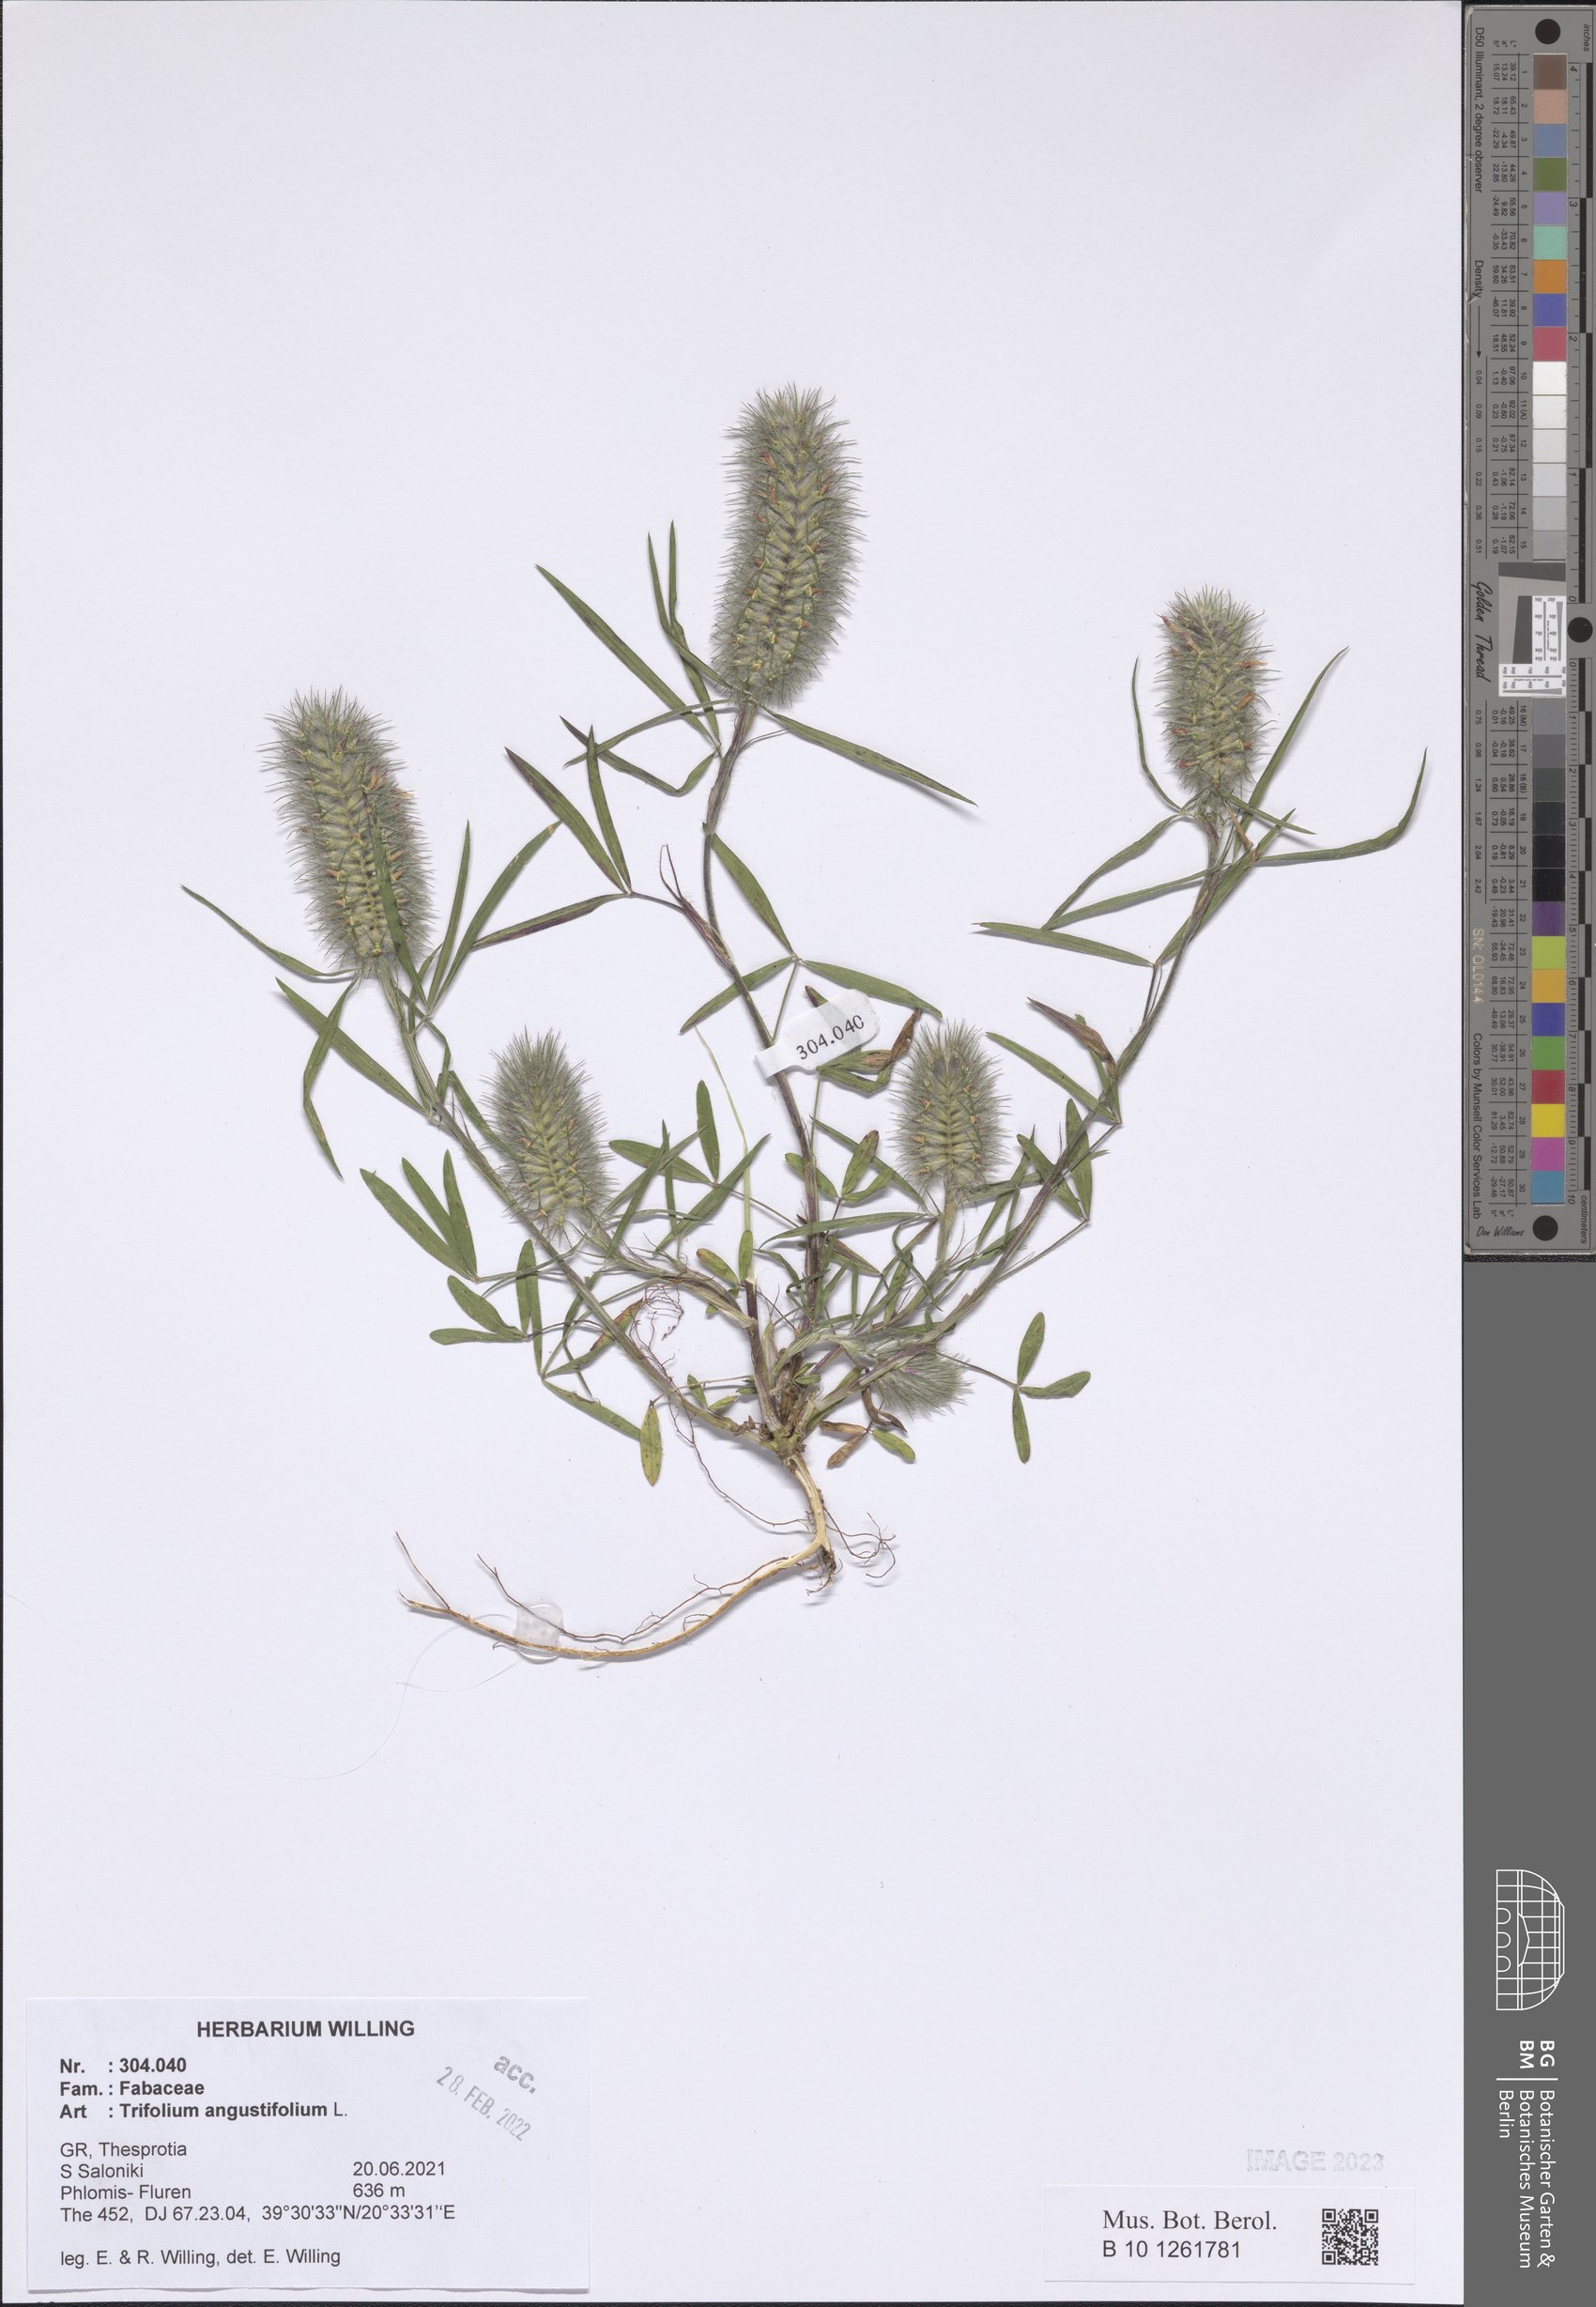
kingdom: Plantae
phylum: Tracheophyta
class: Magnoliopsida
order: Fabales
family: Fabaceae
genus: Trifolium
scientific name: Trifolium angustifolium
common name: Narrow clover
